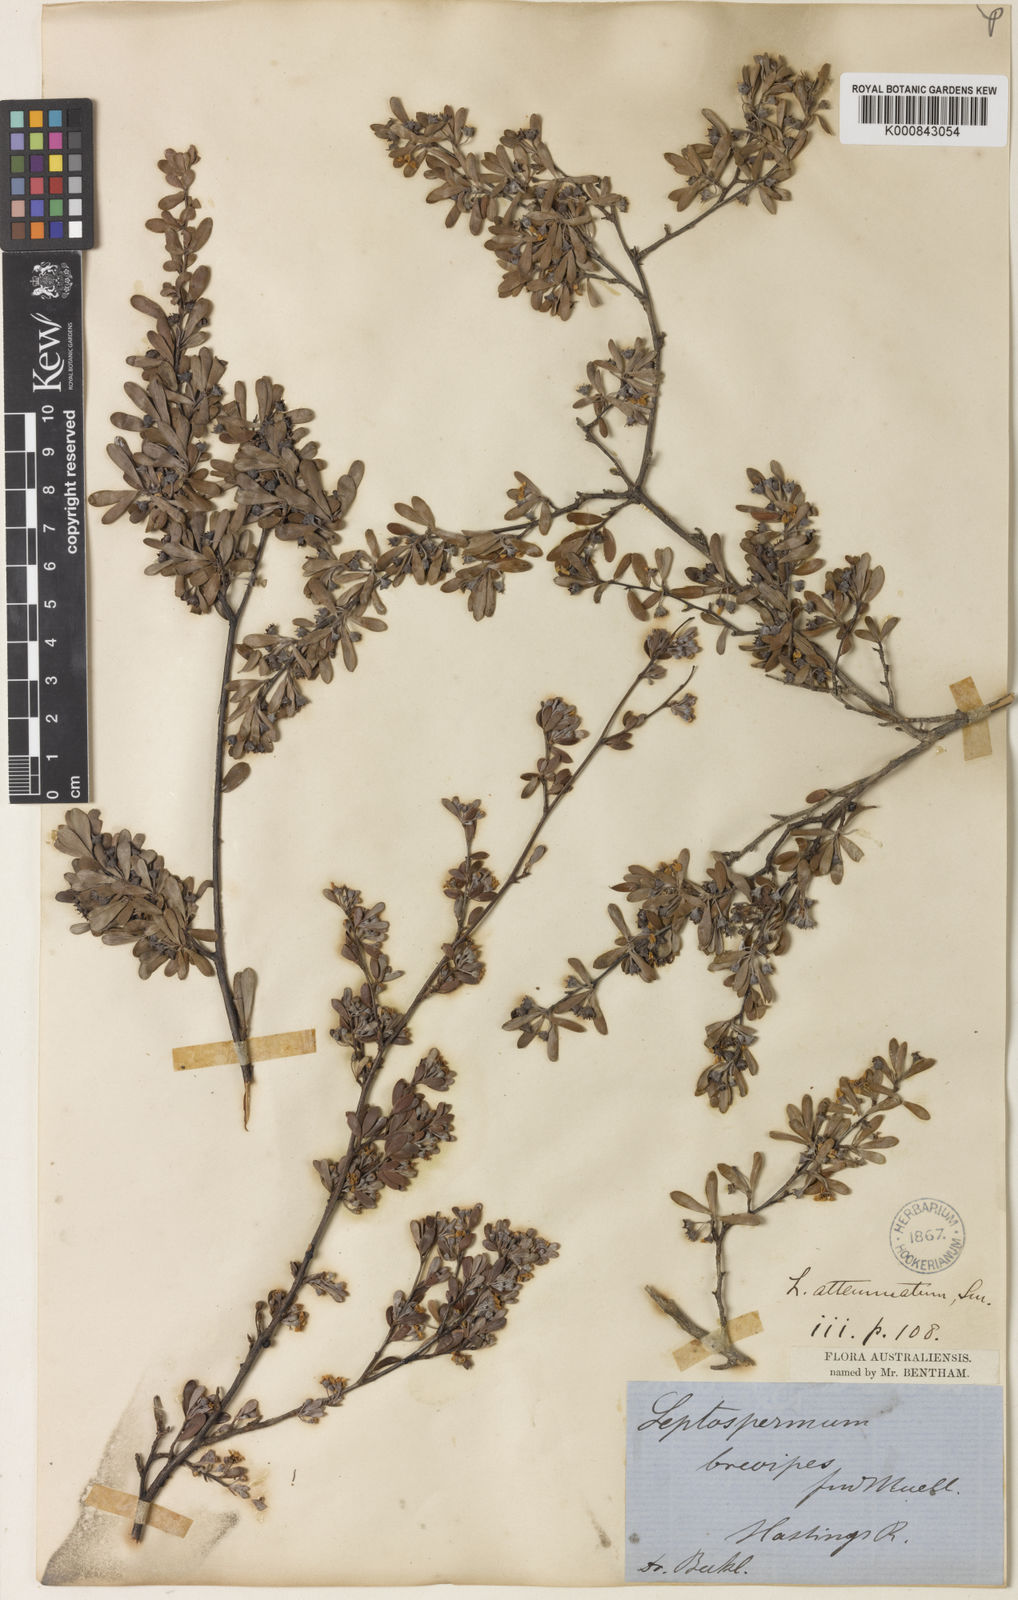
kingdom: Plantae
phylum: Tracheophyta
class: Magnoliopsida
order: Myrtales
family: Myrtaceae
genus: Leptospermum
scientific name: Leptospermum brevipes
